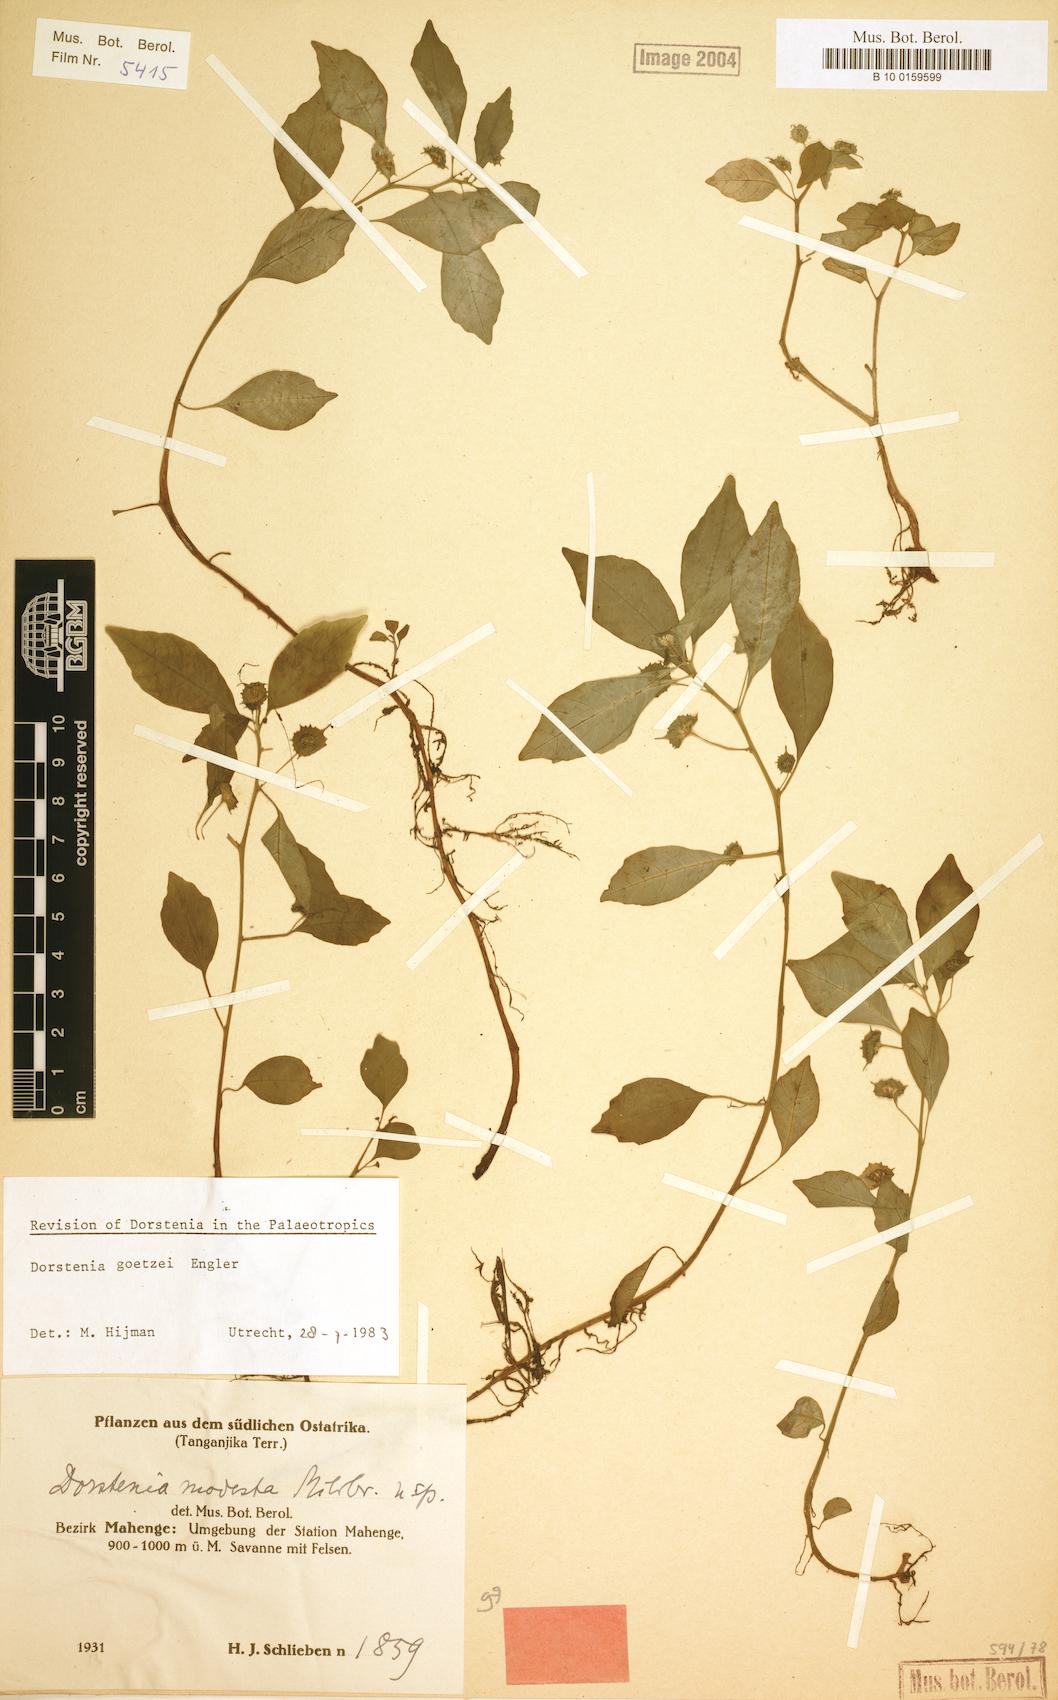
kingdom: Plantae
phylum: Tracheophyta
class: Magnoliopsida
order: Rosales
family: Moraceae
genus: Dorstenia
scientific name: Dorstenia goetzei
